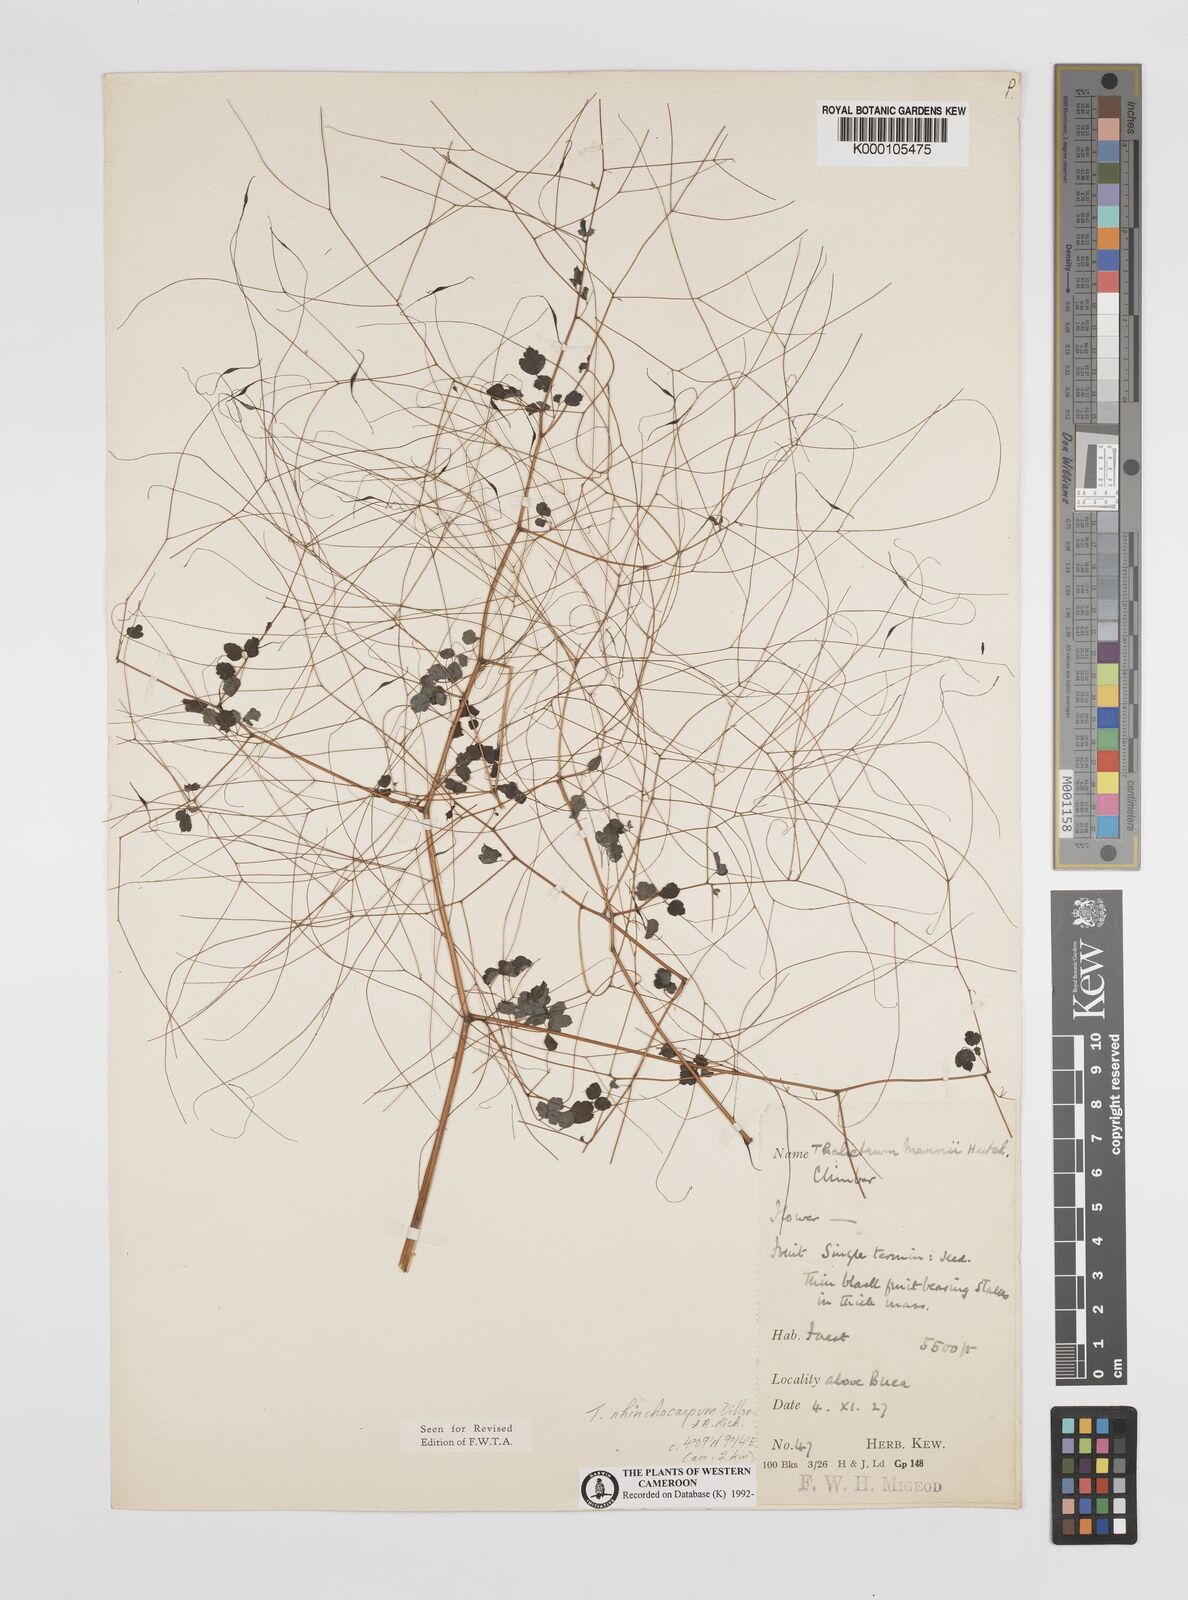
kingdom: Plantae
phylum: Tracheophyta
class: Magnoliopsida
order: Ranunculales
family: Ranunculaceae
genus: Thalictrum
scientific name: Thalictrum
